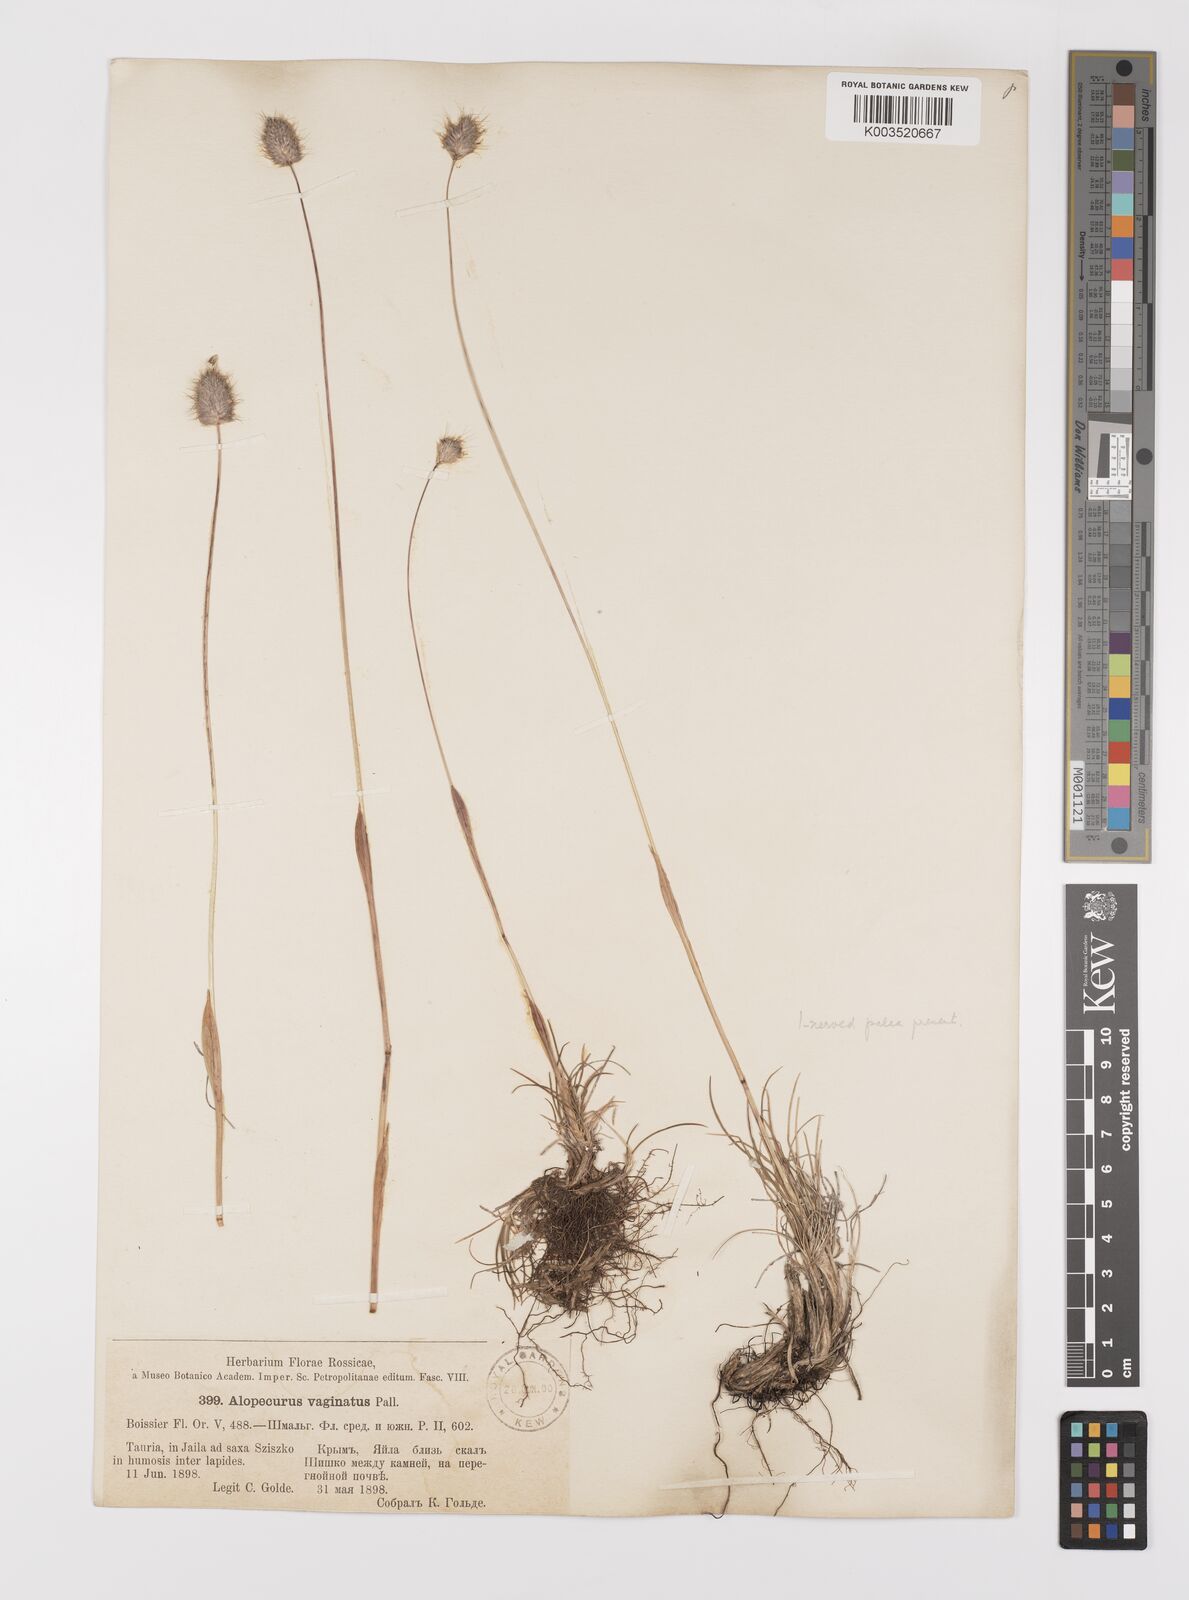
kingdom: Plantae
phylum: Tracheophyta
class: Liliopsida
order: Poales
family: Poaceae
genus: Alopecurus
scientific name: Alopecurus vaginatus
